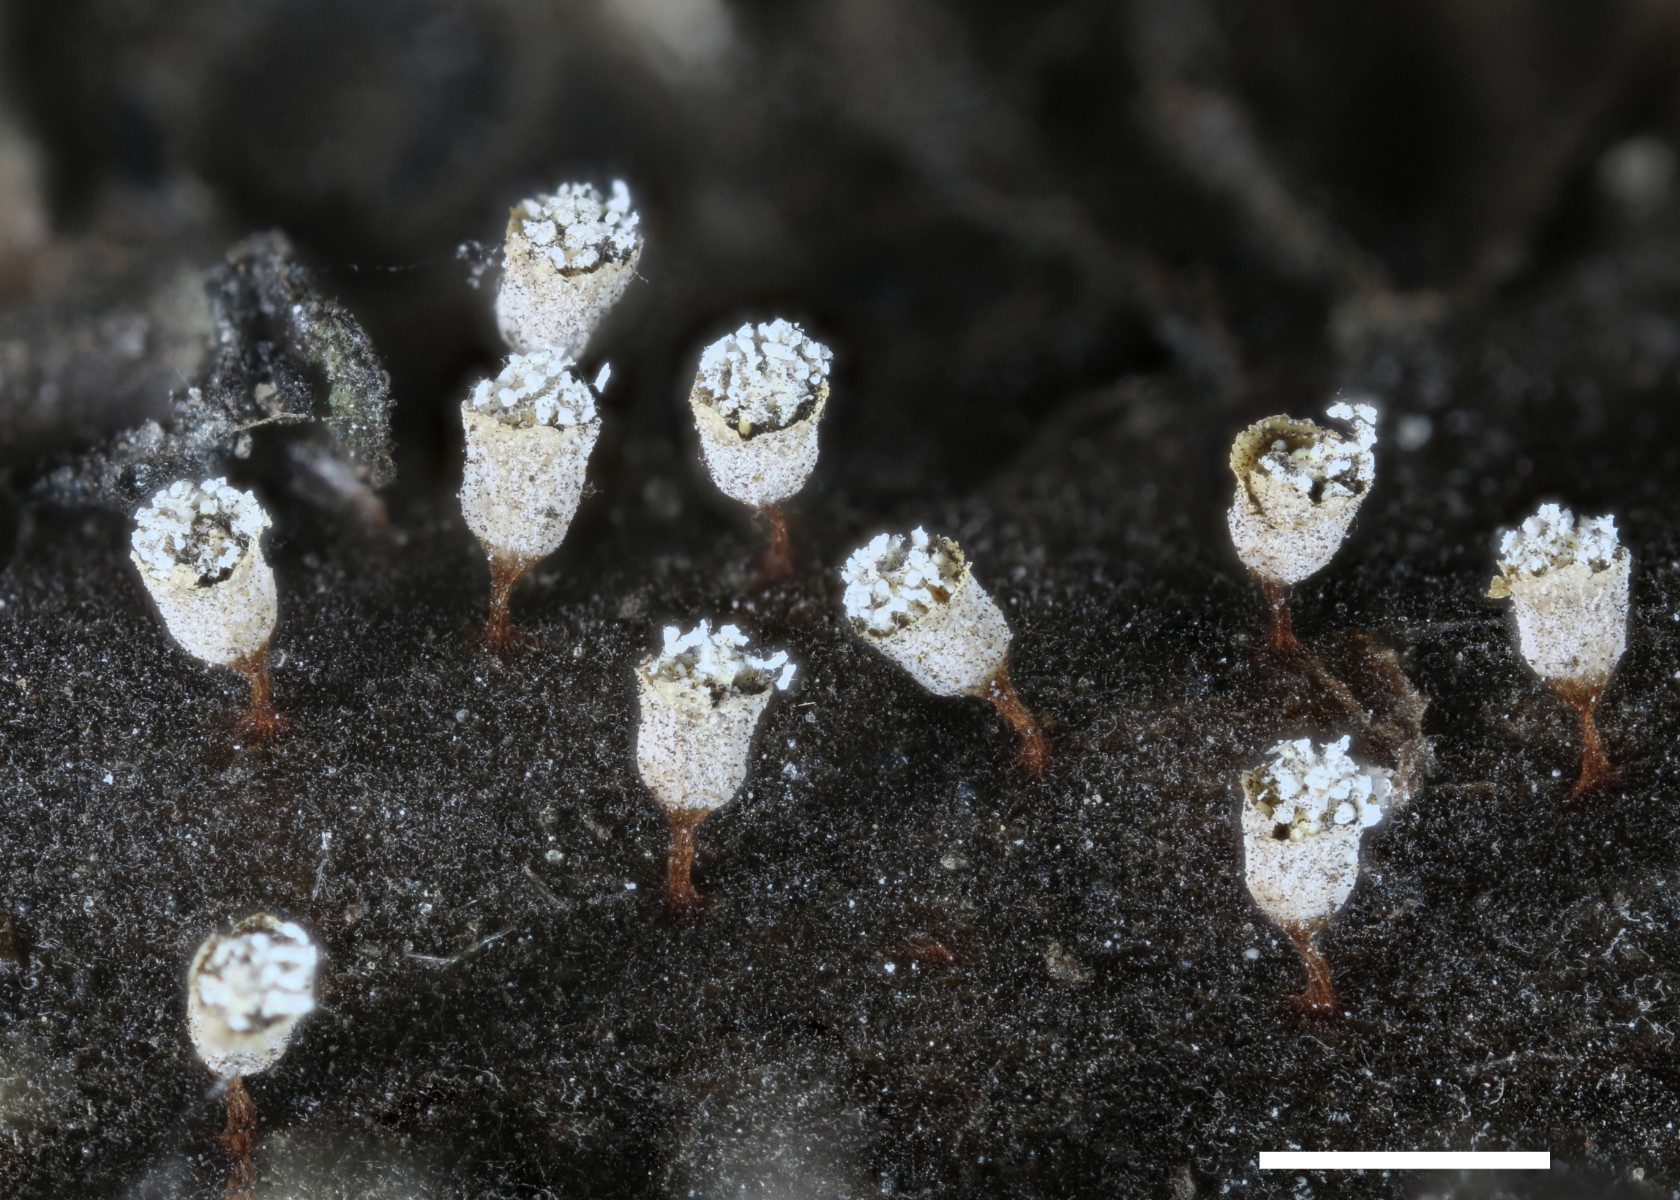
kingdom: Protozoa
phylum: Mycetozoa
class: Myxomycetes
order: Physarales
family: Physaraceae
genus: Craterium
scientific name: Craterium leucocephalum
